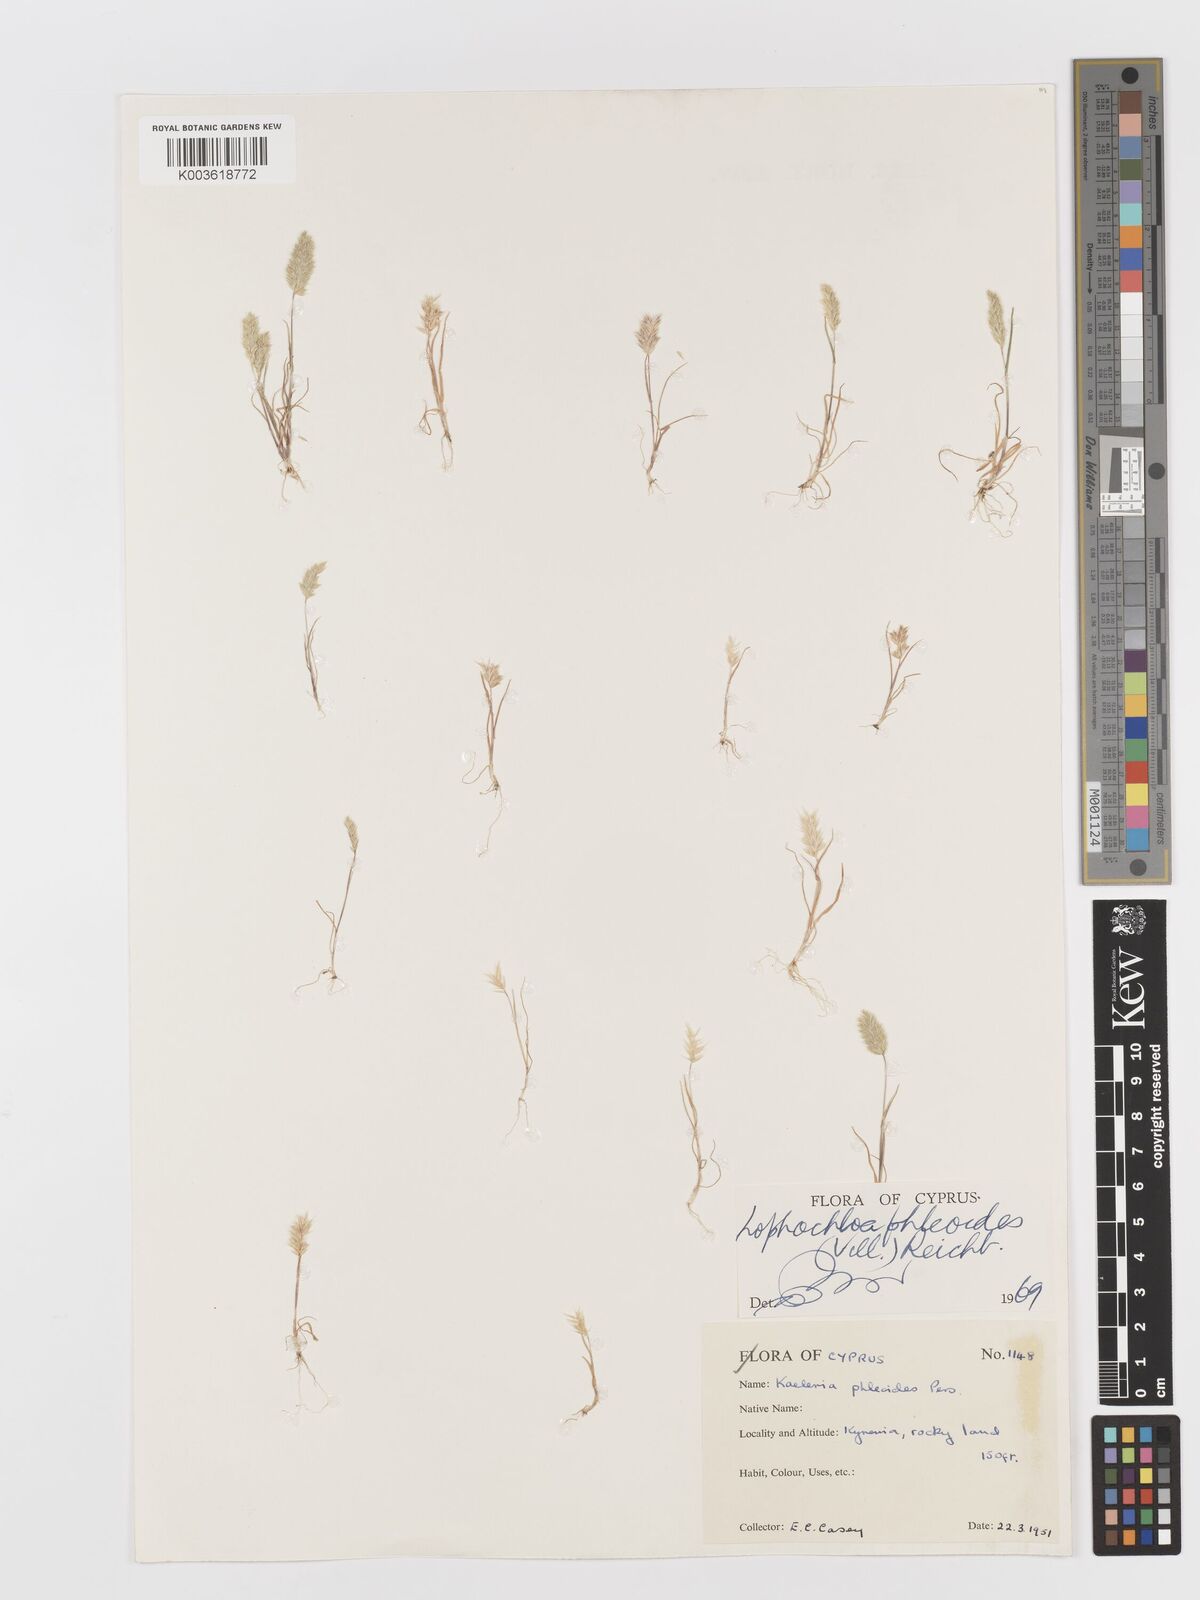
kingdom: Plantae
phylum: Tracheophyta
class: Liliopsida
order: Poales
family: Poaceae
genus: Rostraria
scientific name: Rostraria cristata
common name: Mediterranean hair-grass
